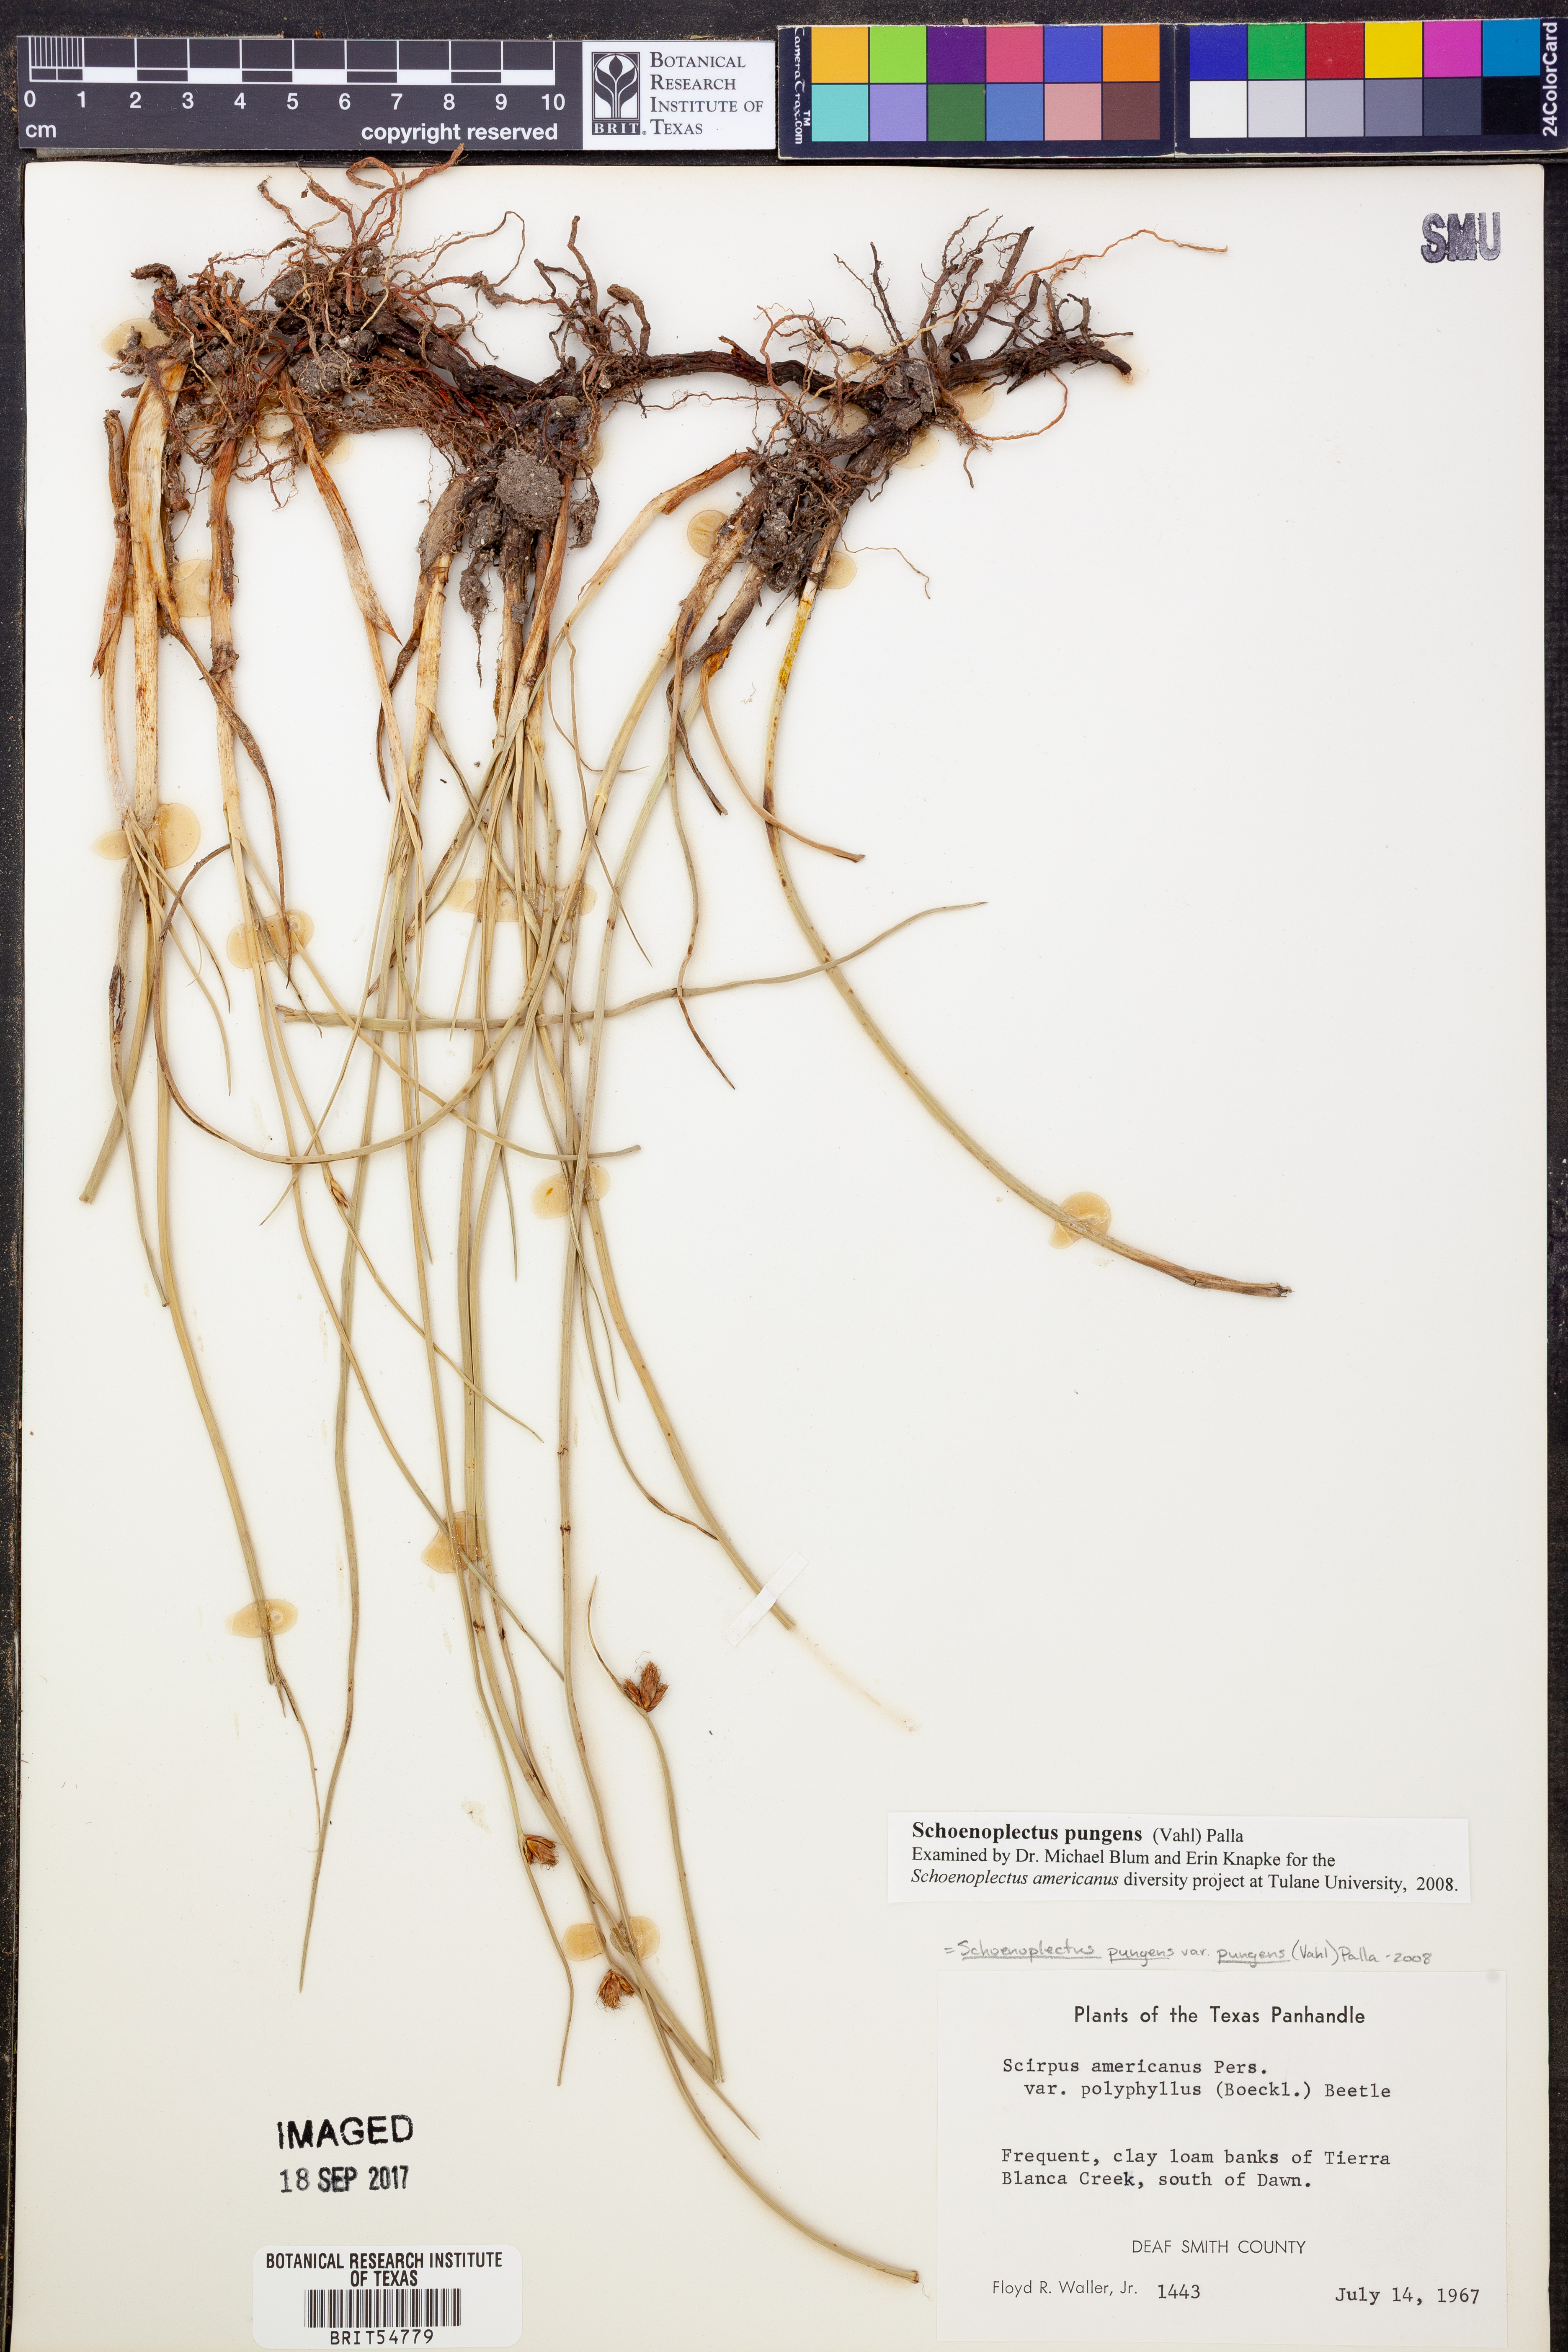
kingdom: Plantae
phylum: Tracheophyta
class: Liliopsida
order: Poales
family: Cyperaceae
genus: Schoenoplectus
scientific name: Schoenoplectus pungens
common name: Sharp club-rush
